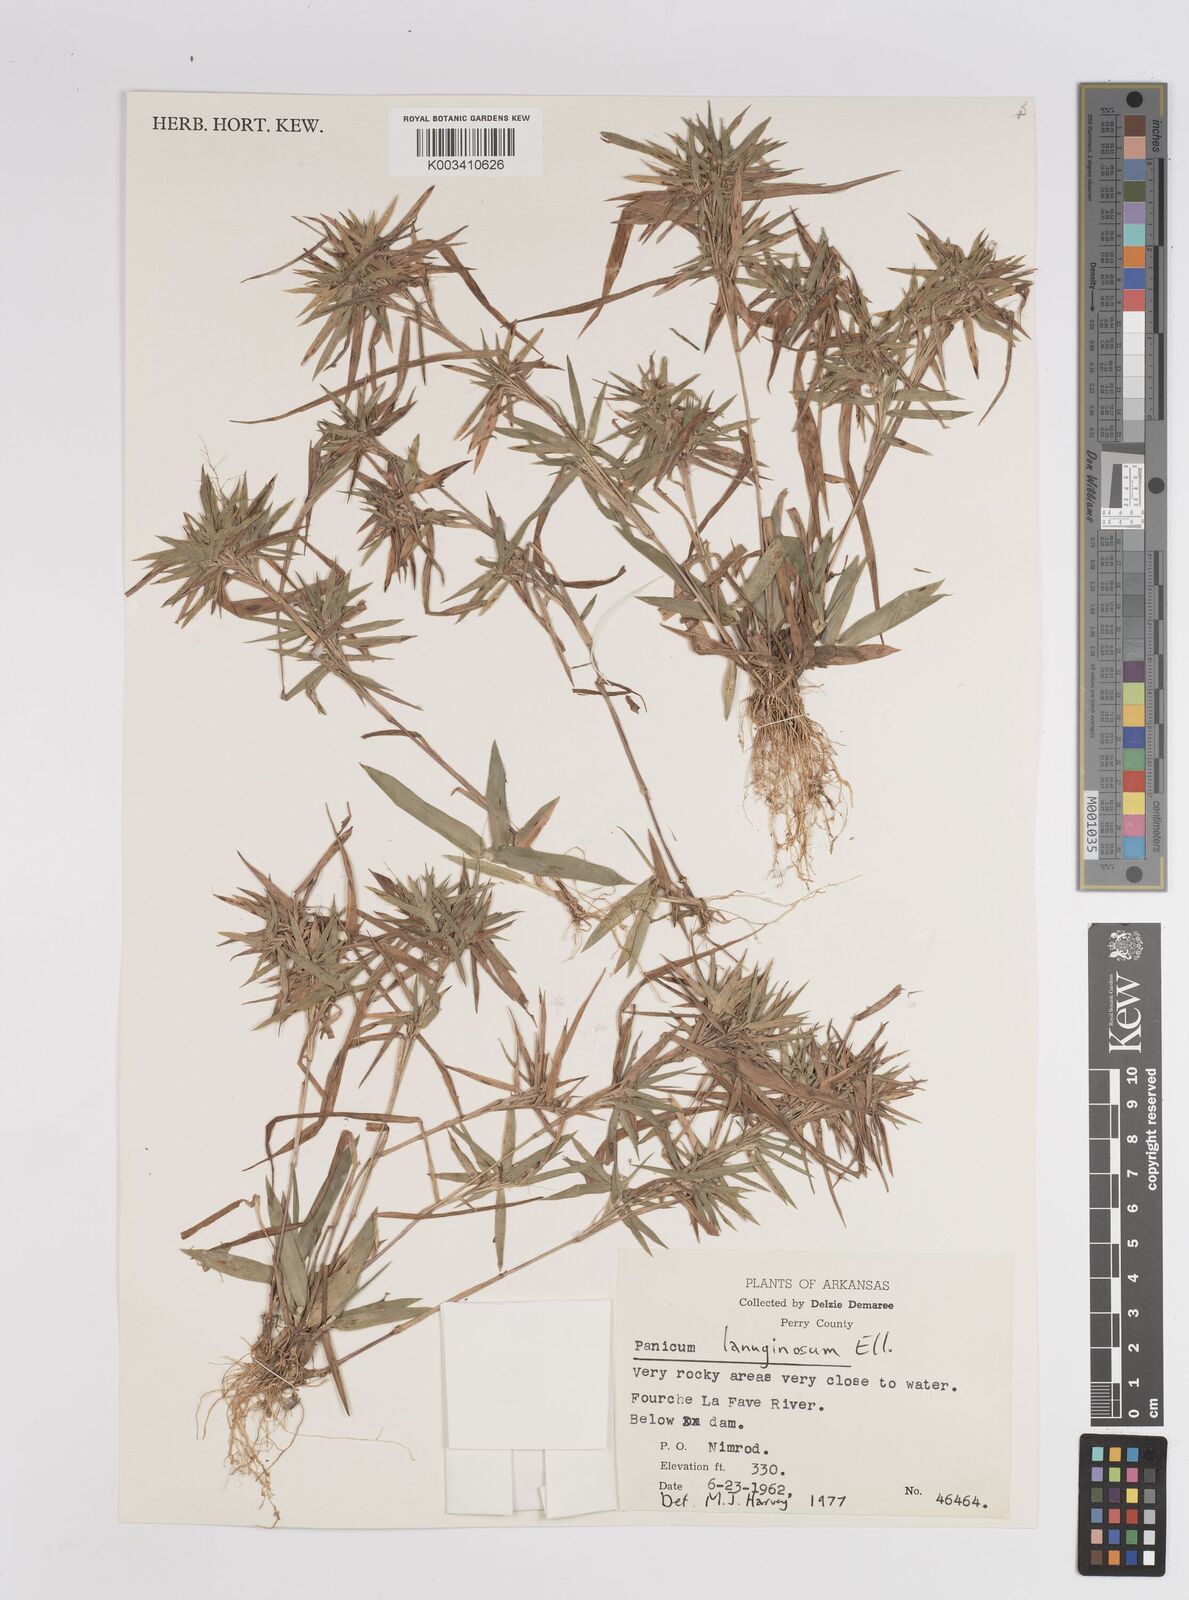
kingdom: Plantae
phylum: Tracheophyta
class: Liliopsida
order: Poales
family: Poaceae
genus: Dichanthelium
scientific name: Dichanthelium lanuginosum
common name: Woolly panicgrass
